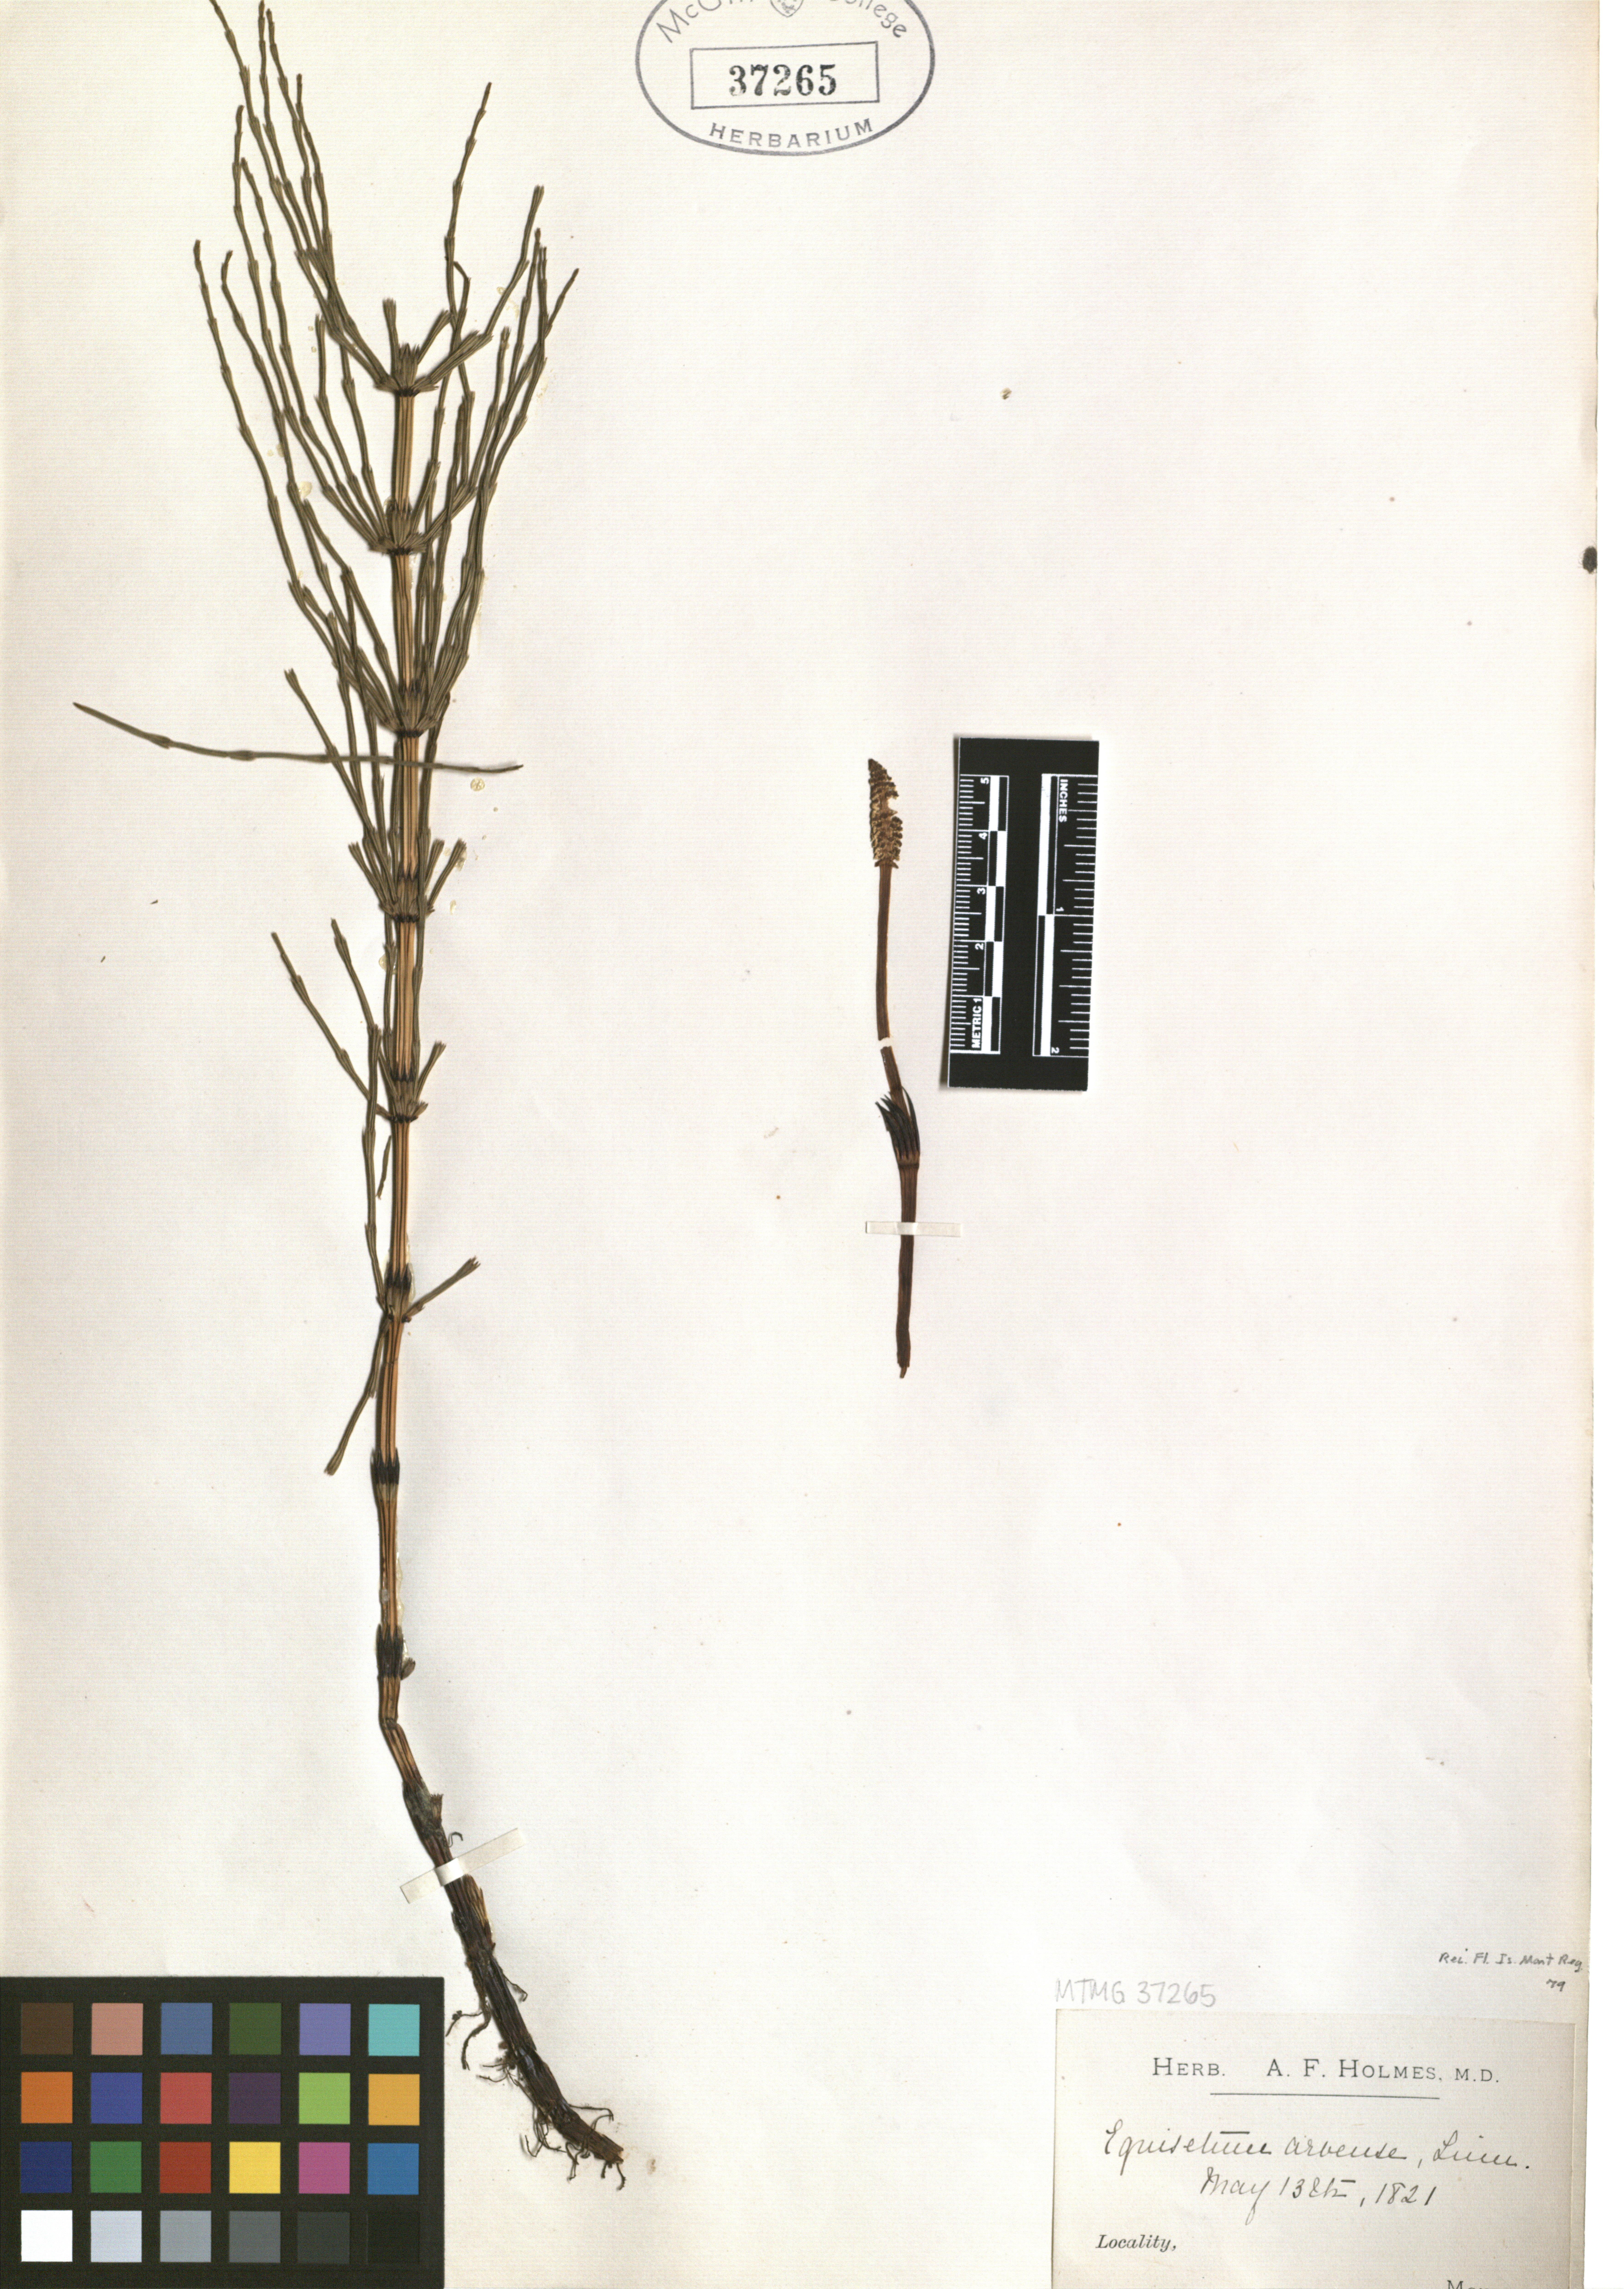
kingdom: Plantae
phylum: Tracheophyta
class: Polypodiopsida
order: Equisetales
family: Equisetaceae
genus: Equisetum
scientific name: Equisetum arvense
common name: Field horsetail
